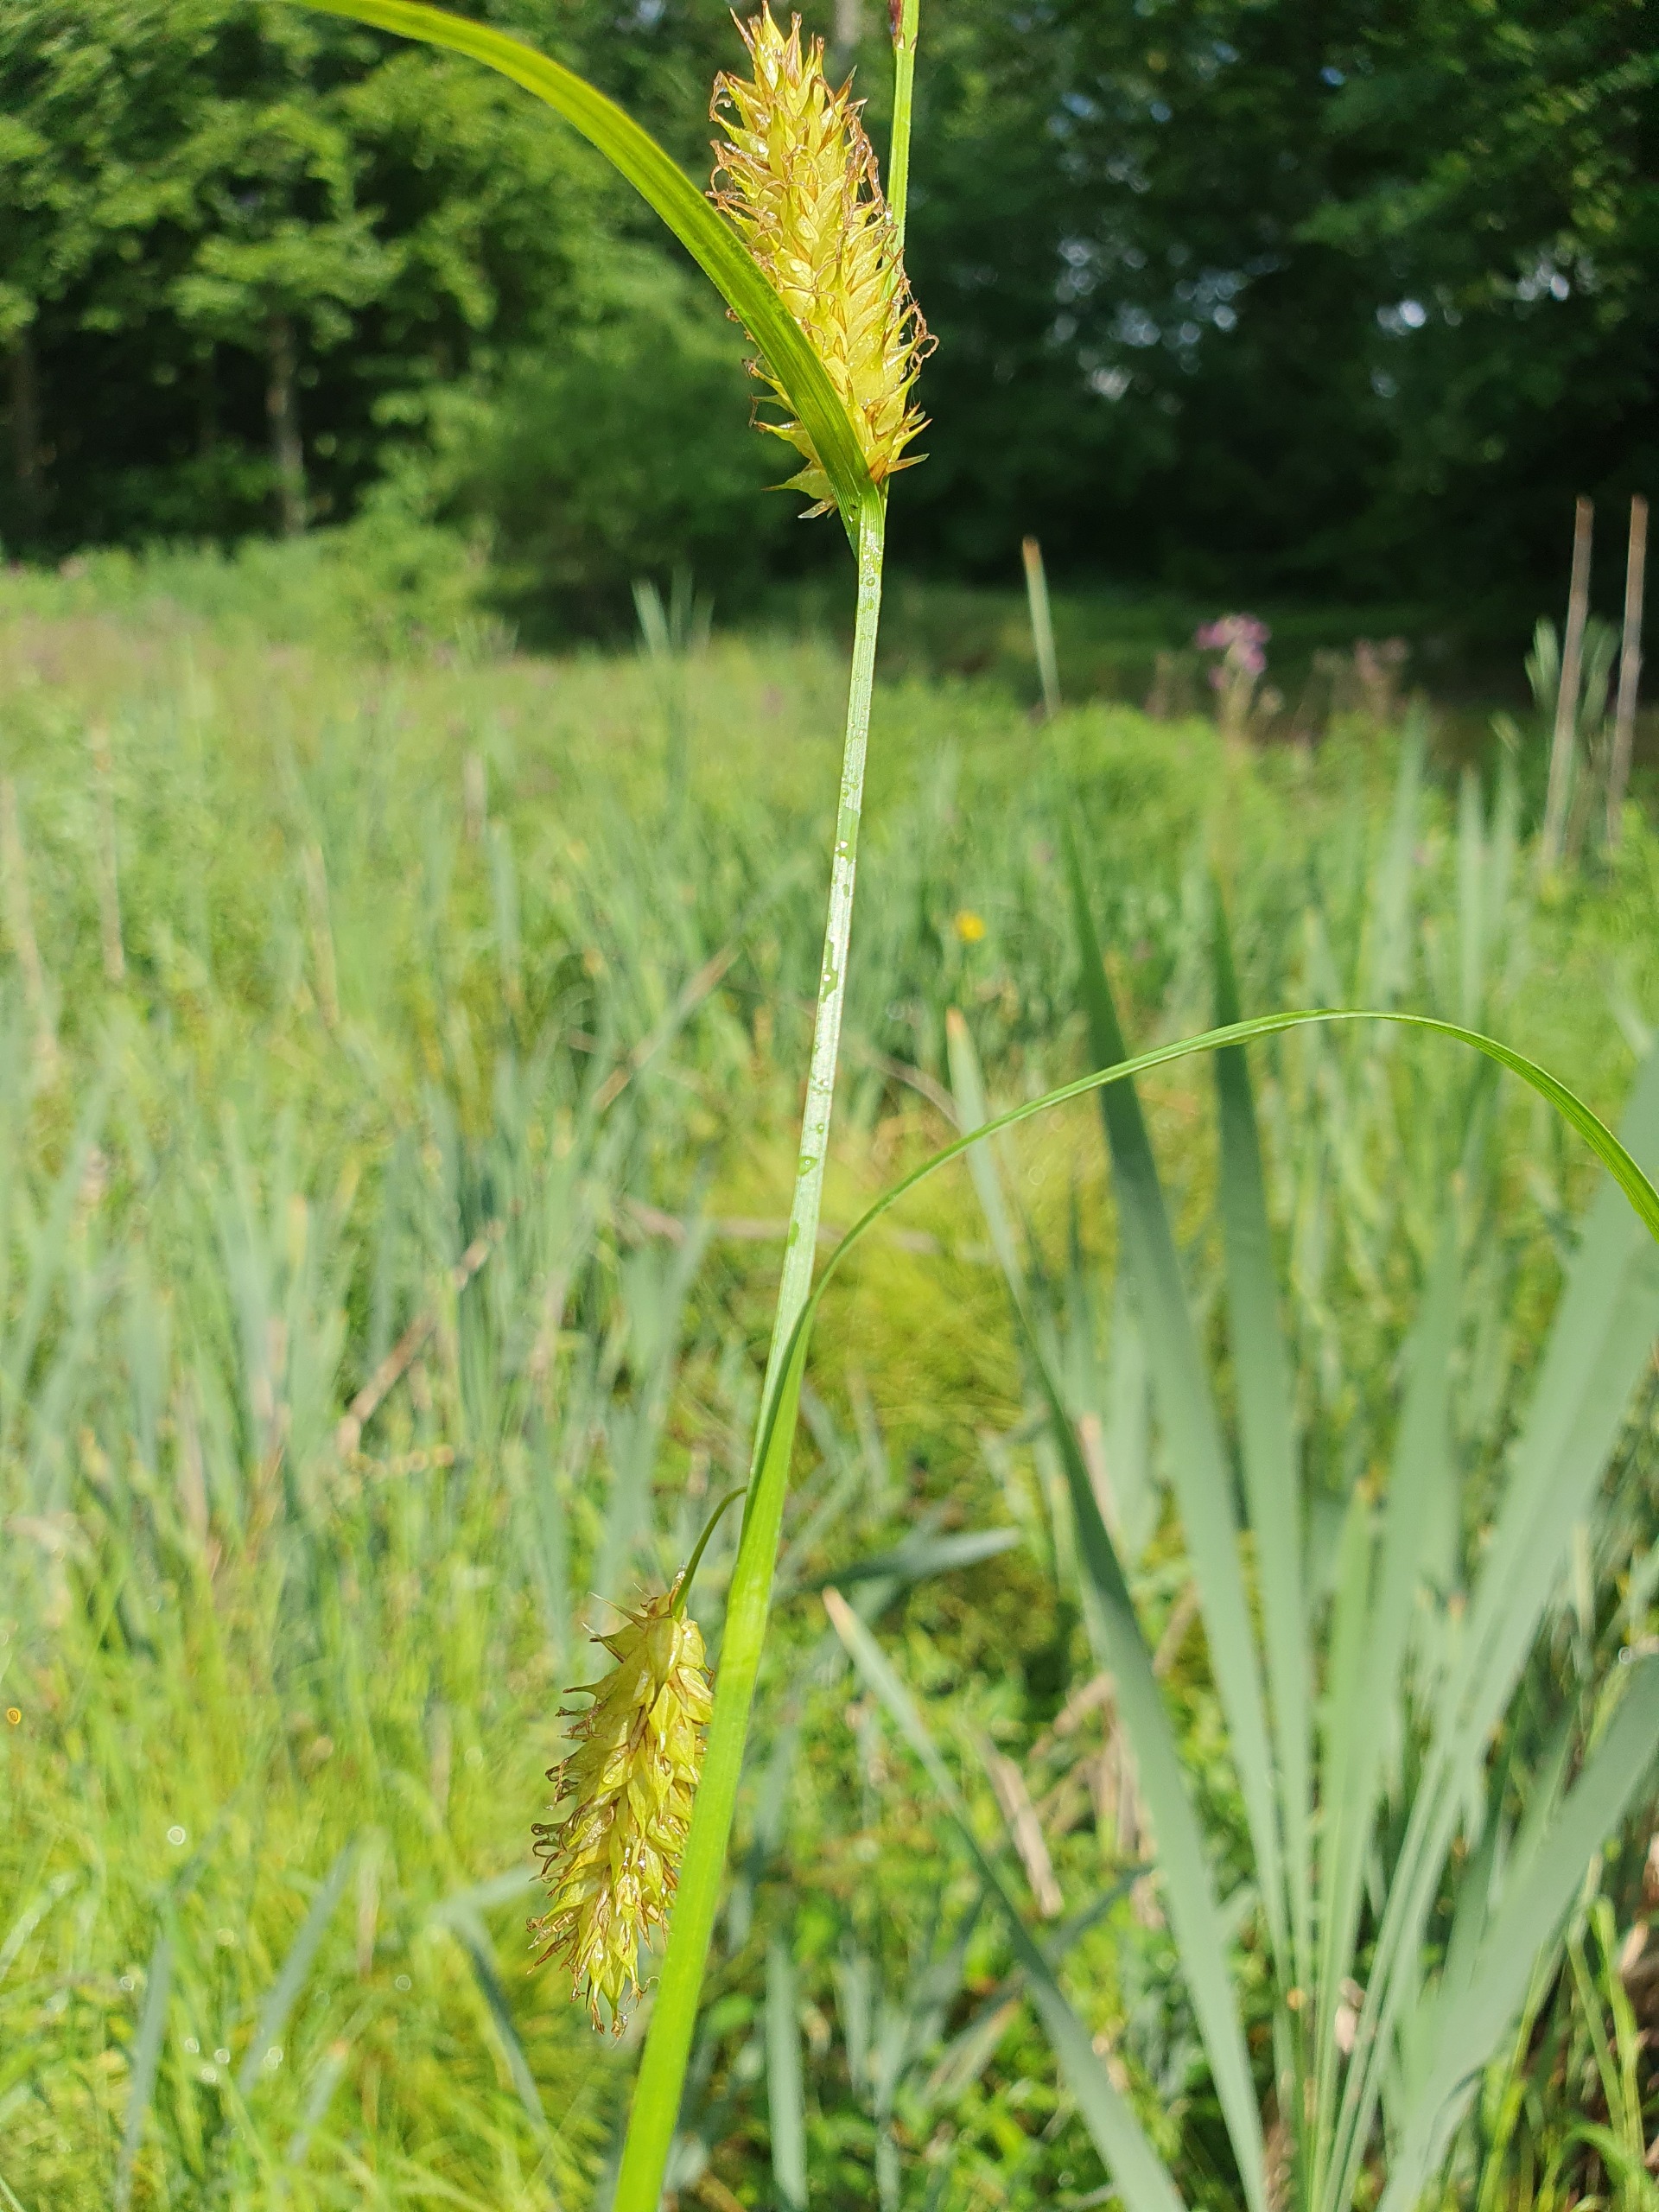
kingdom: Plantae
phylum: Tracheophyta
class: Liliopsida
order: Poales
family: Cyperaceae
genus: Carex
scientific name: Carex vesicaria
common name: Blære-star
